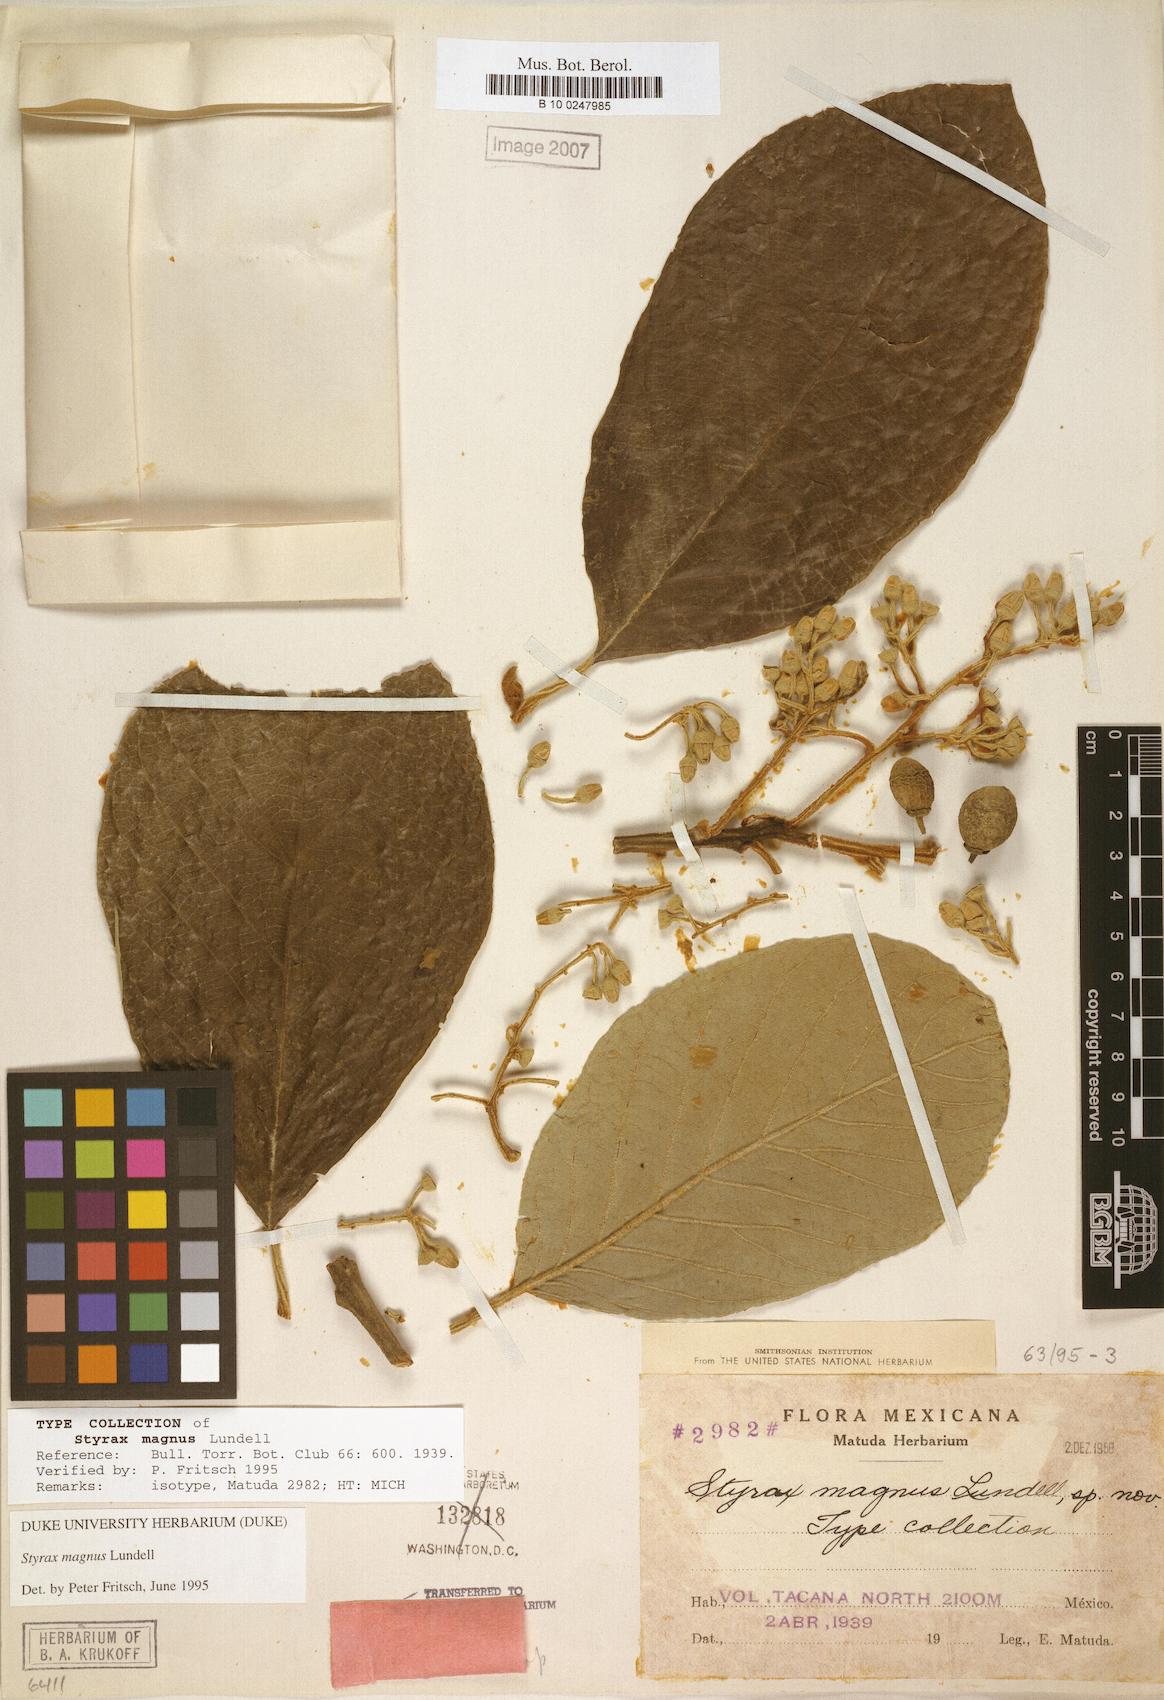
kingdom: Plantae
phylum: Tracheophyta
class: Magnoliopsida
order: Ericales
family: Styracaceae
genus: Styrax
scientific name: Styrax magnus
